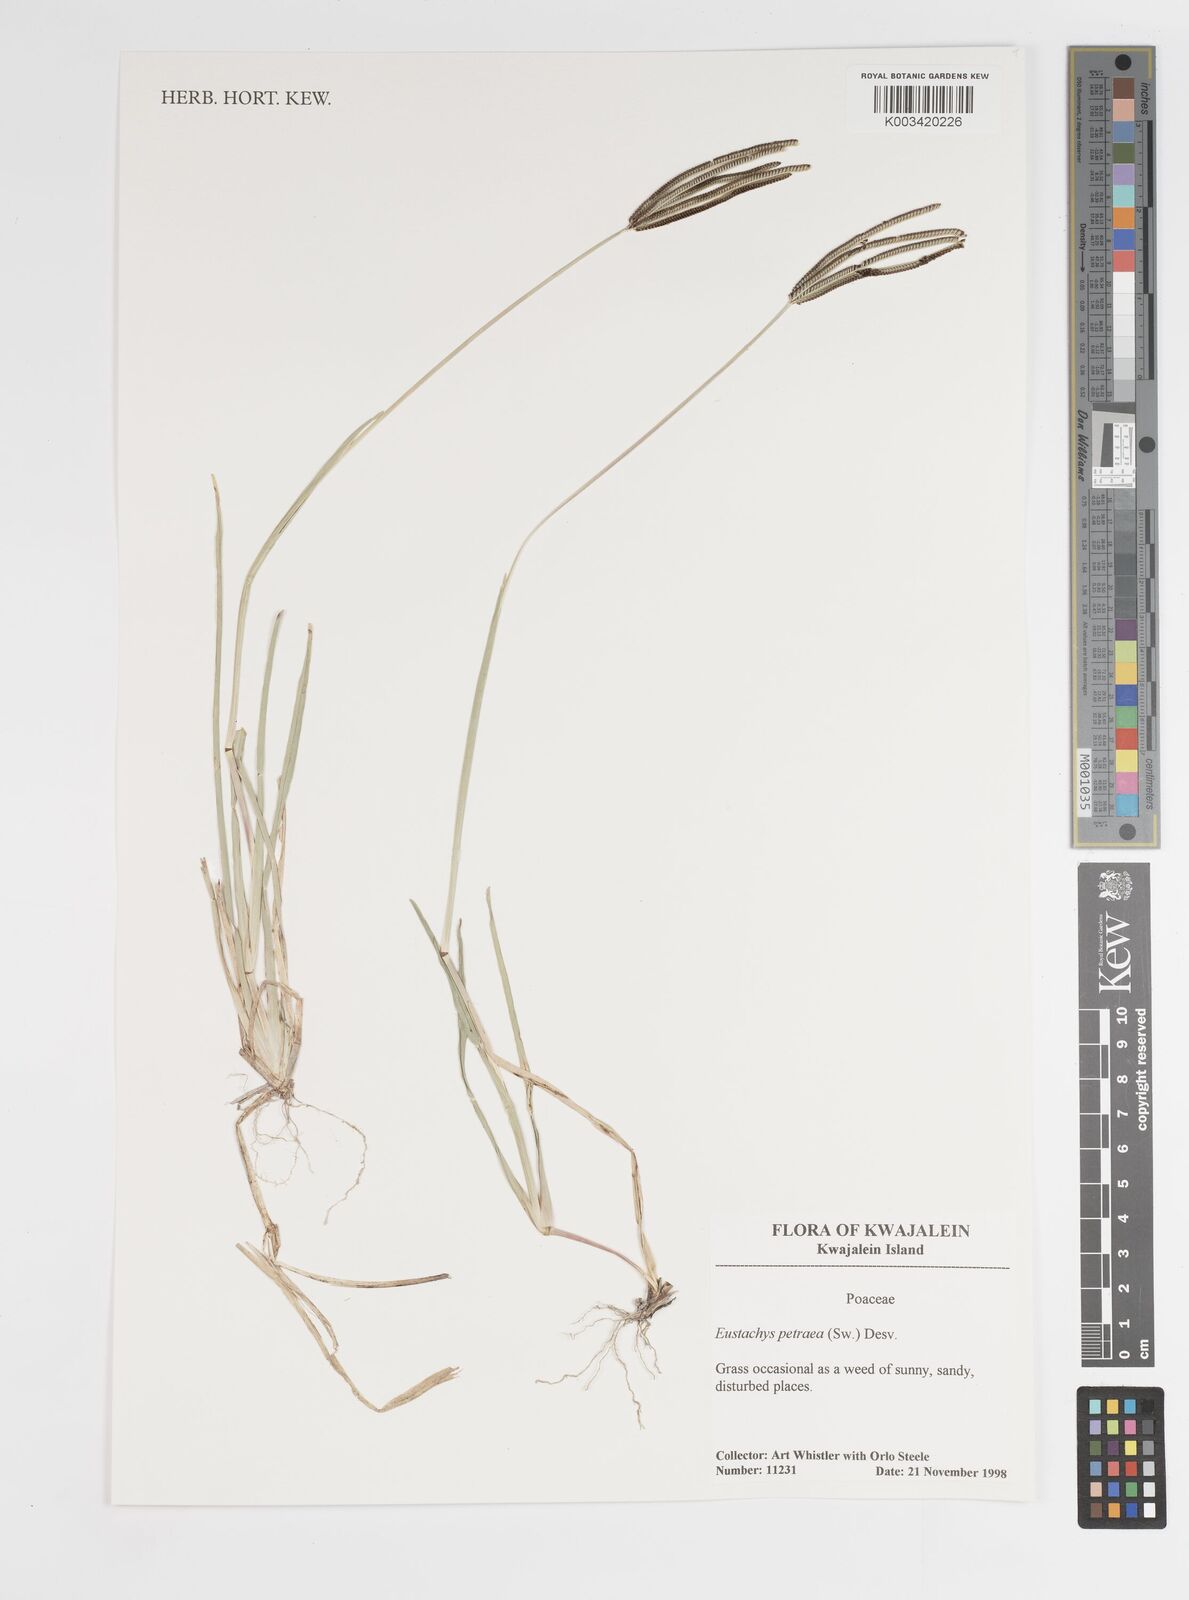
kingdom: Plantae
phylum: Tracheophyta
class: Liliopsida
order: Poales
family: Poaceae
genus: Eustachys
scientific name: Eustachys petraea
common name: Pinewoods fingergrass
